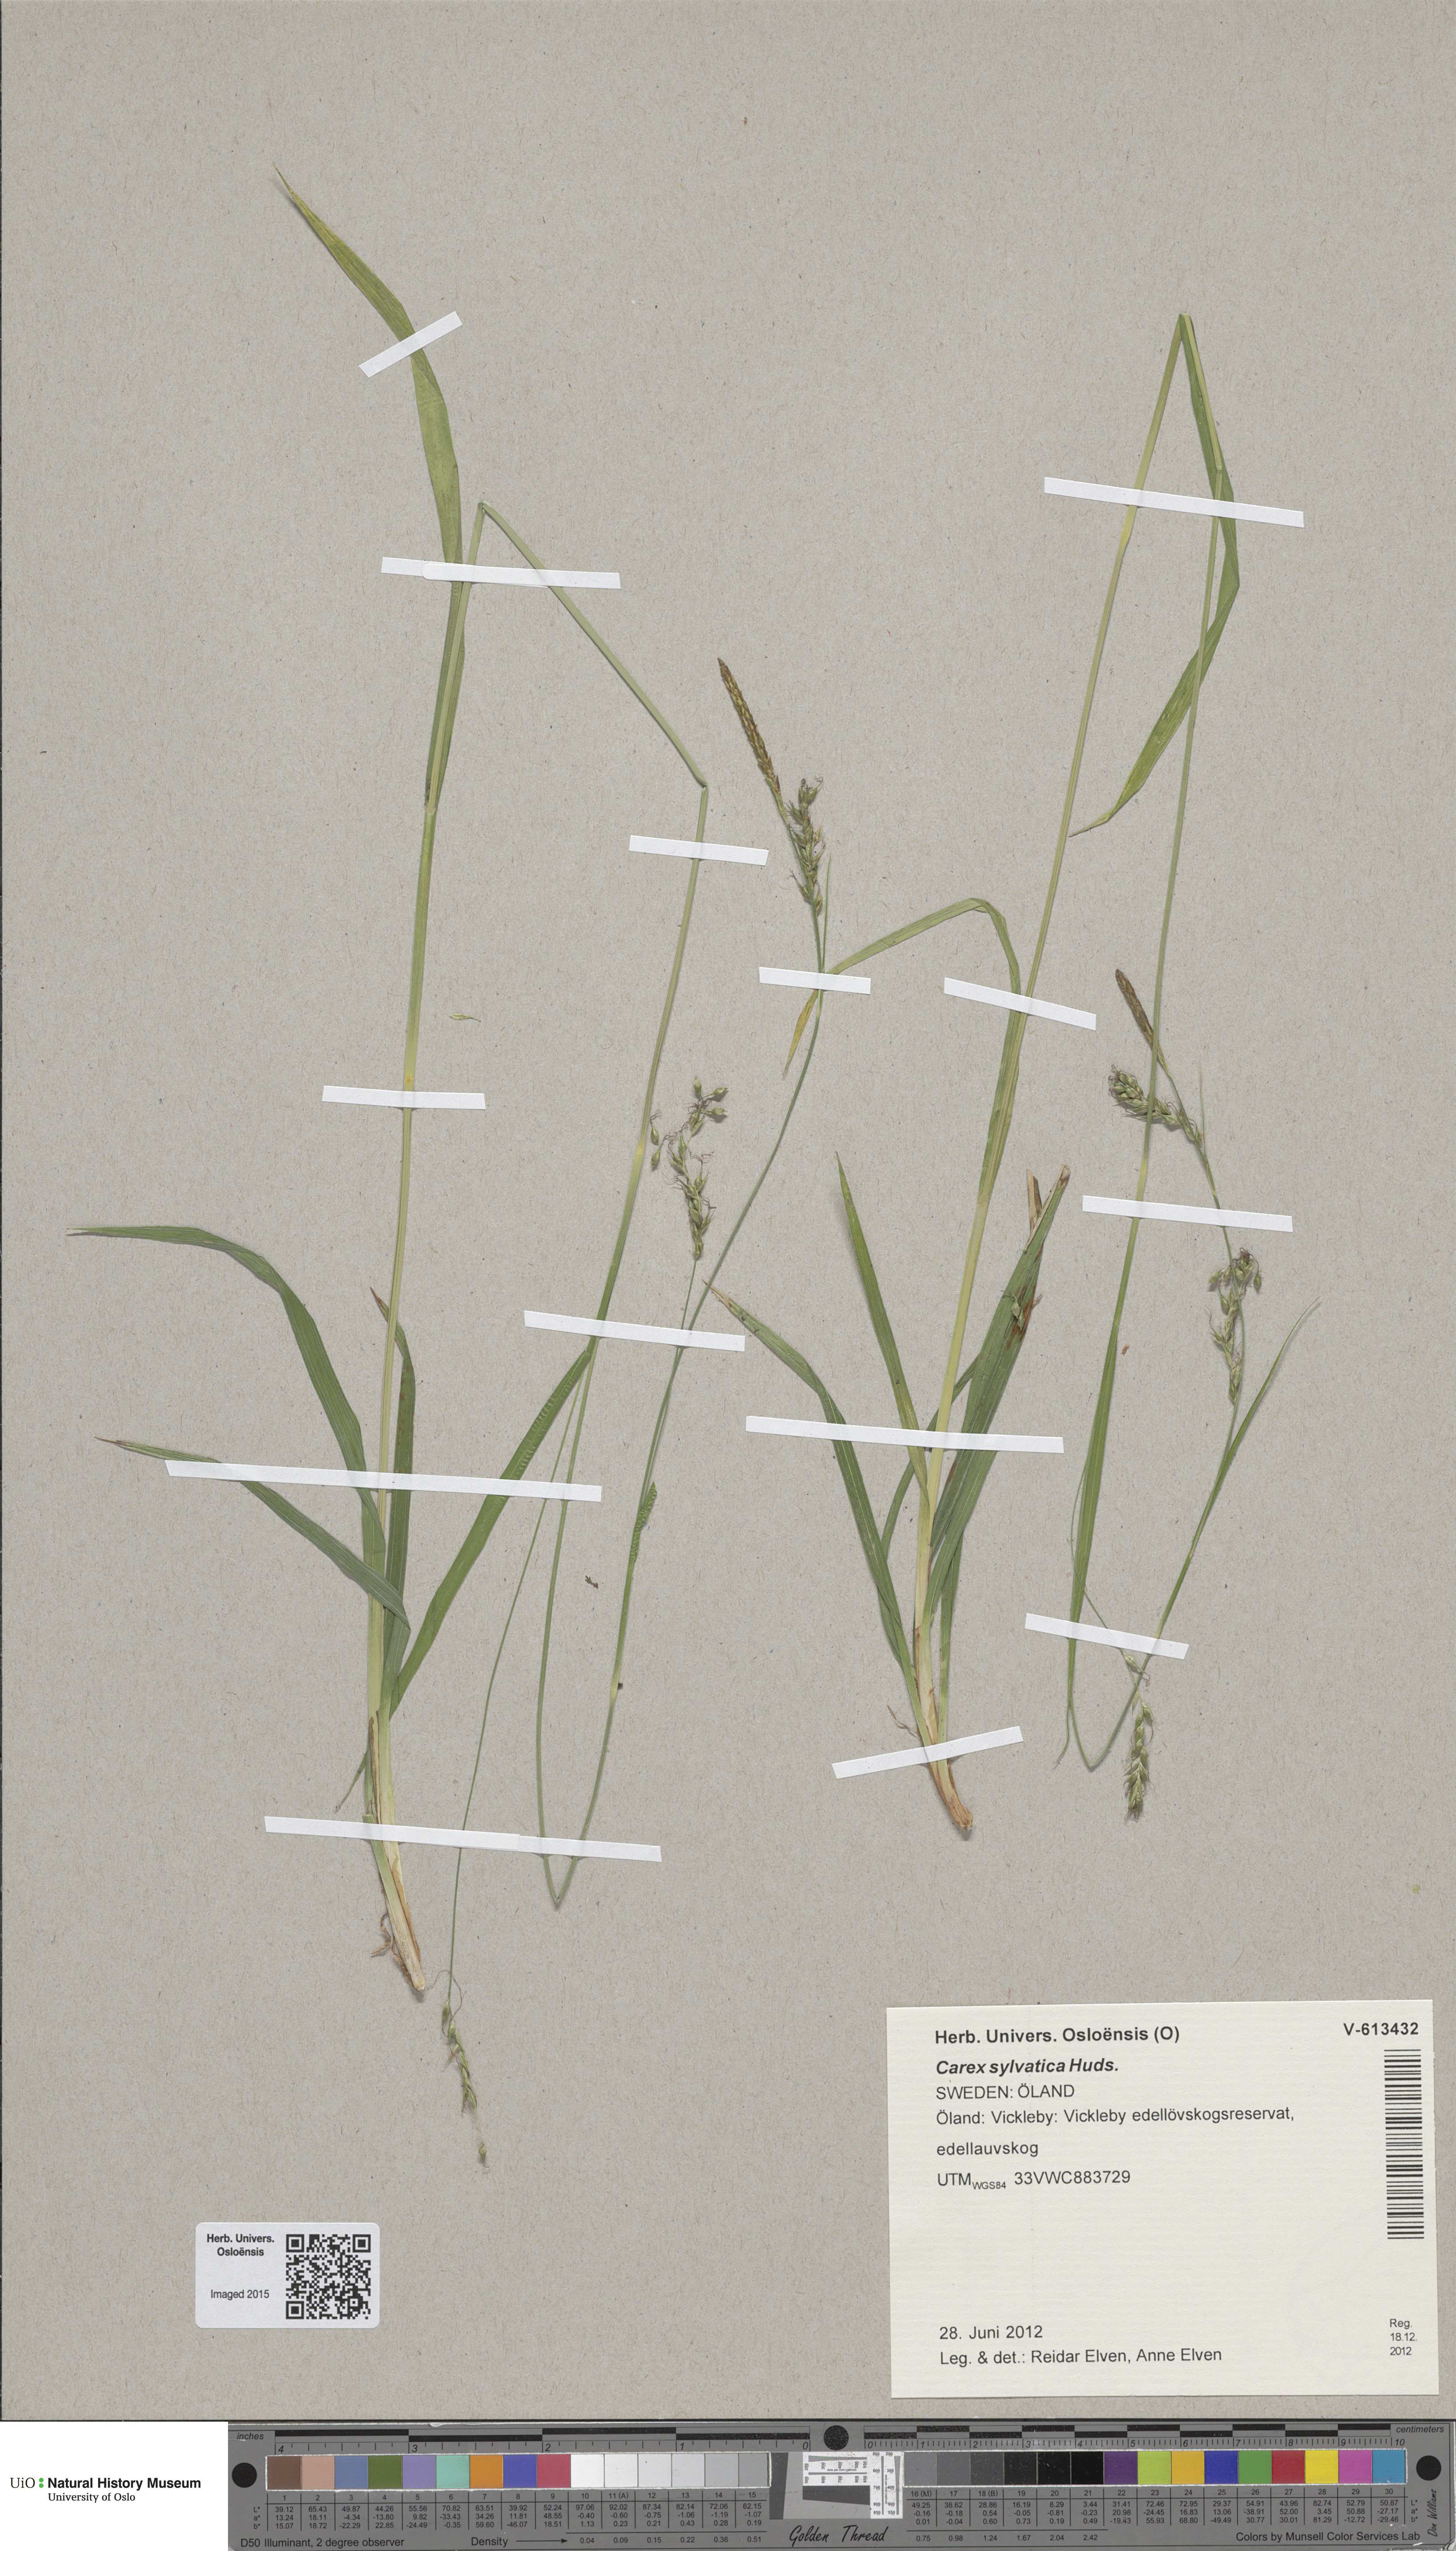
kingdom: Plantae
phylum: Tracheophyta
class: Liliopsida
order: Poales
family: Cyperaceae
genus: Carex
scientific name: Carex sylvatica
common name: Wood-sedge
